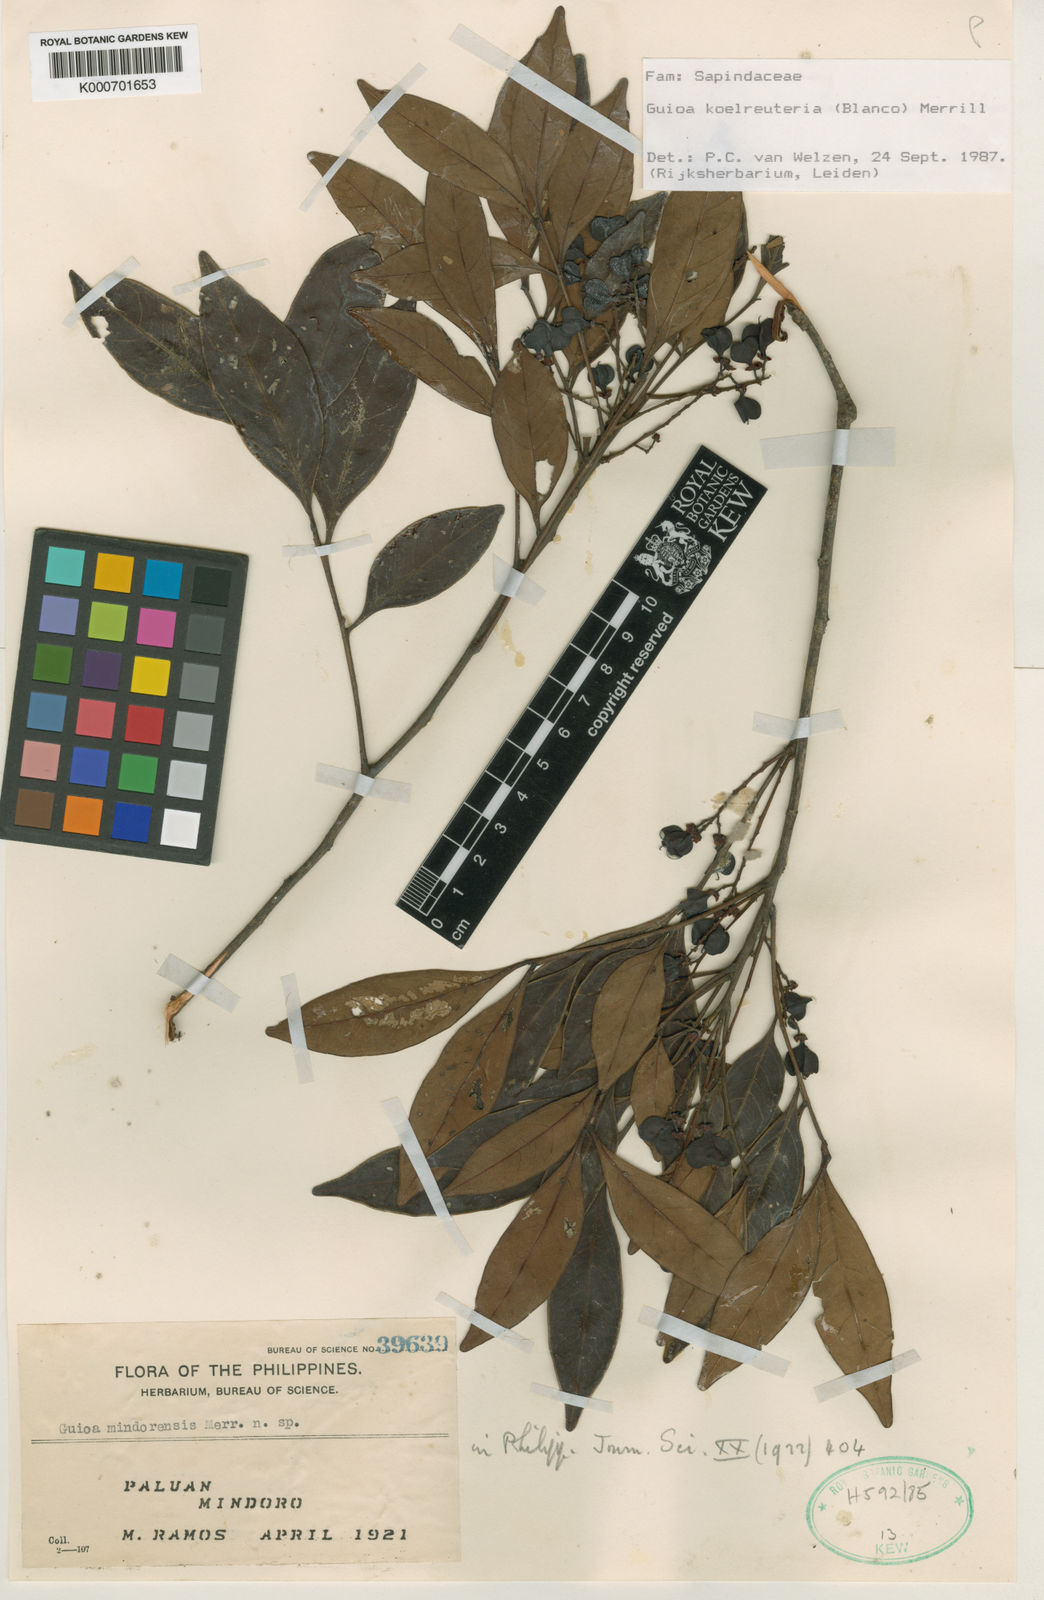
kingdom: Plantae
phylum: Tracheophyta
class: Magnoliopsida
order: Sapindales
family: Sapindaceae
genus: Guioa
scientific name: Guioa koelreuteria
